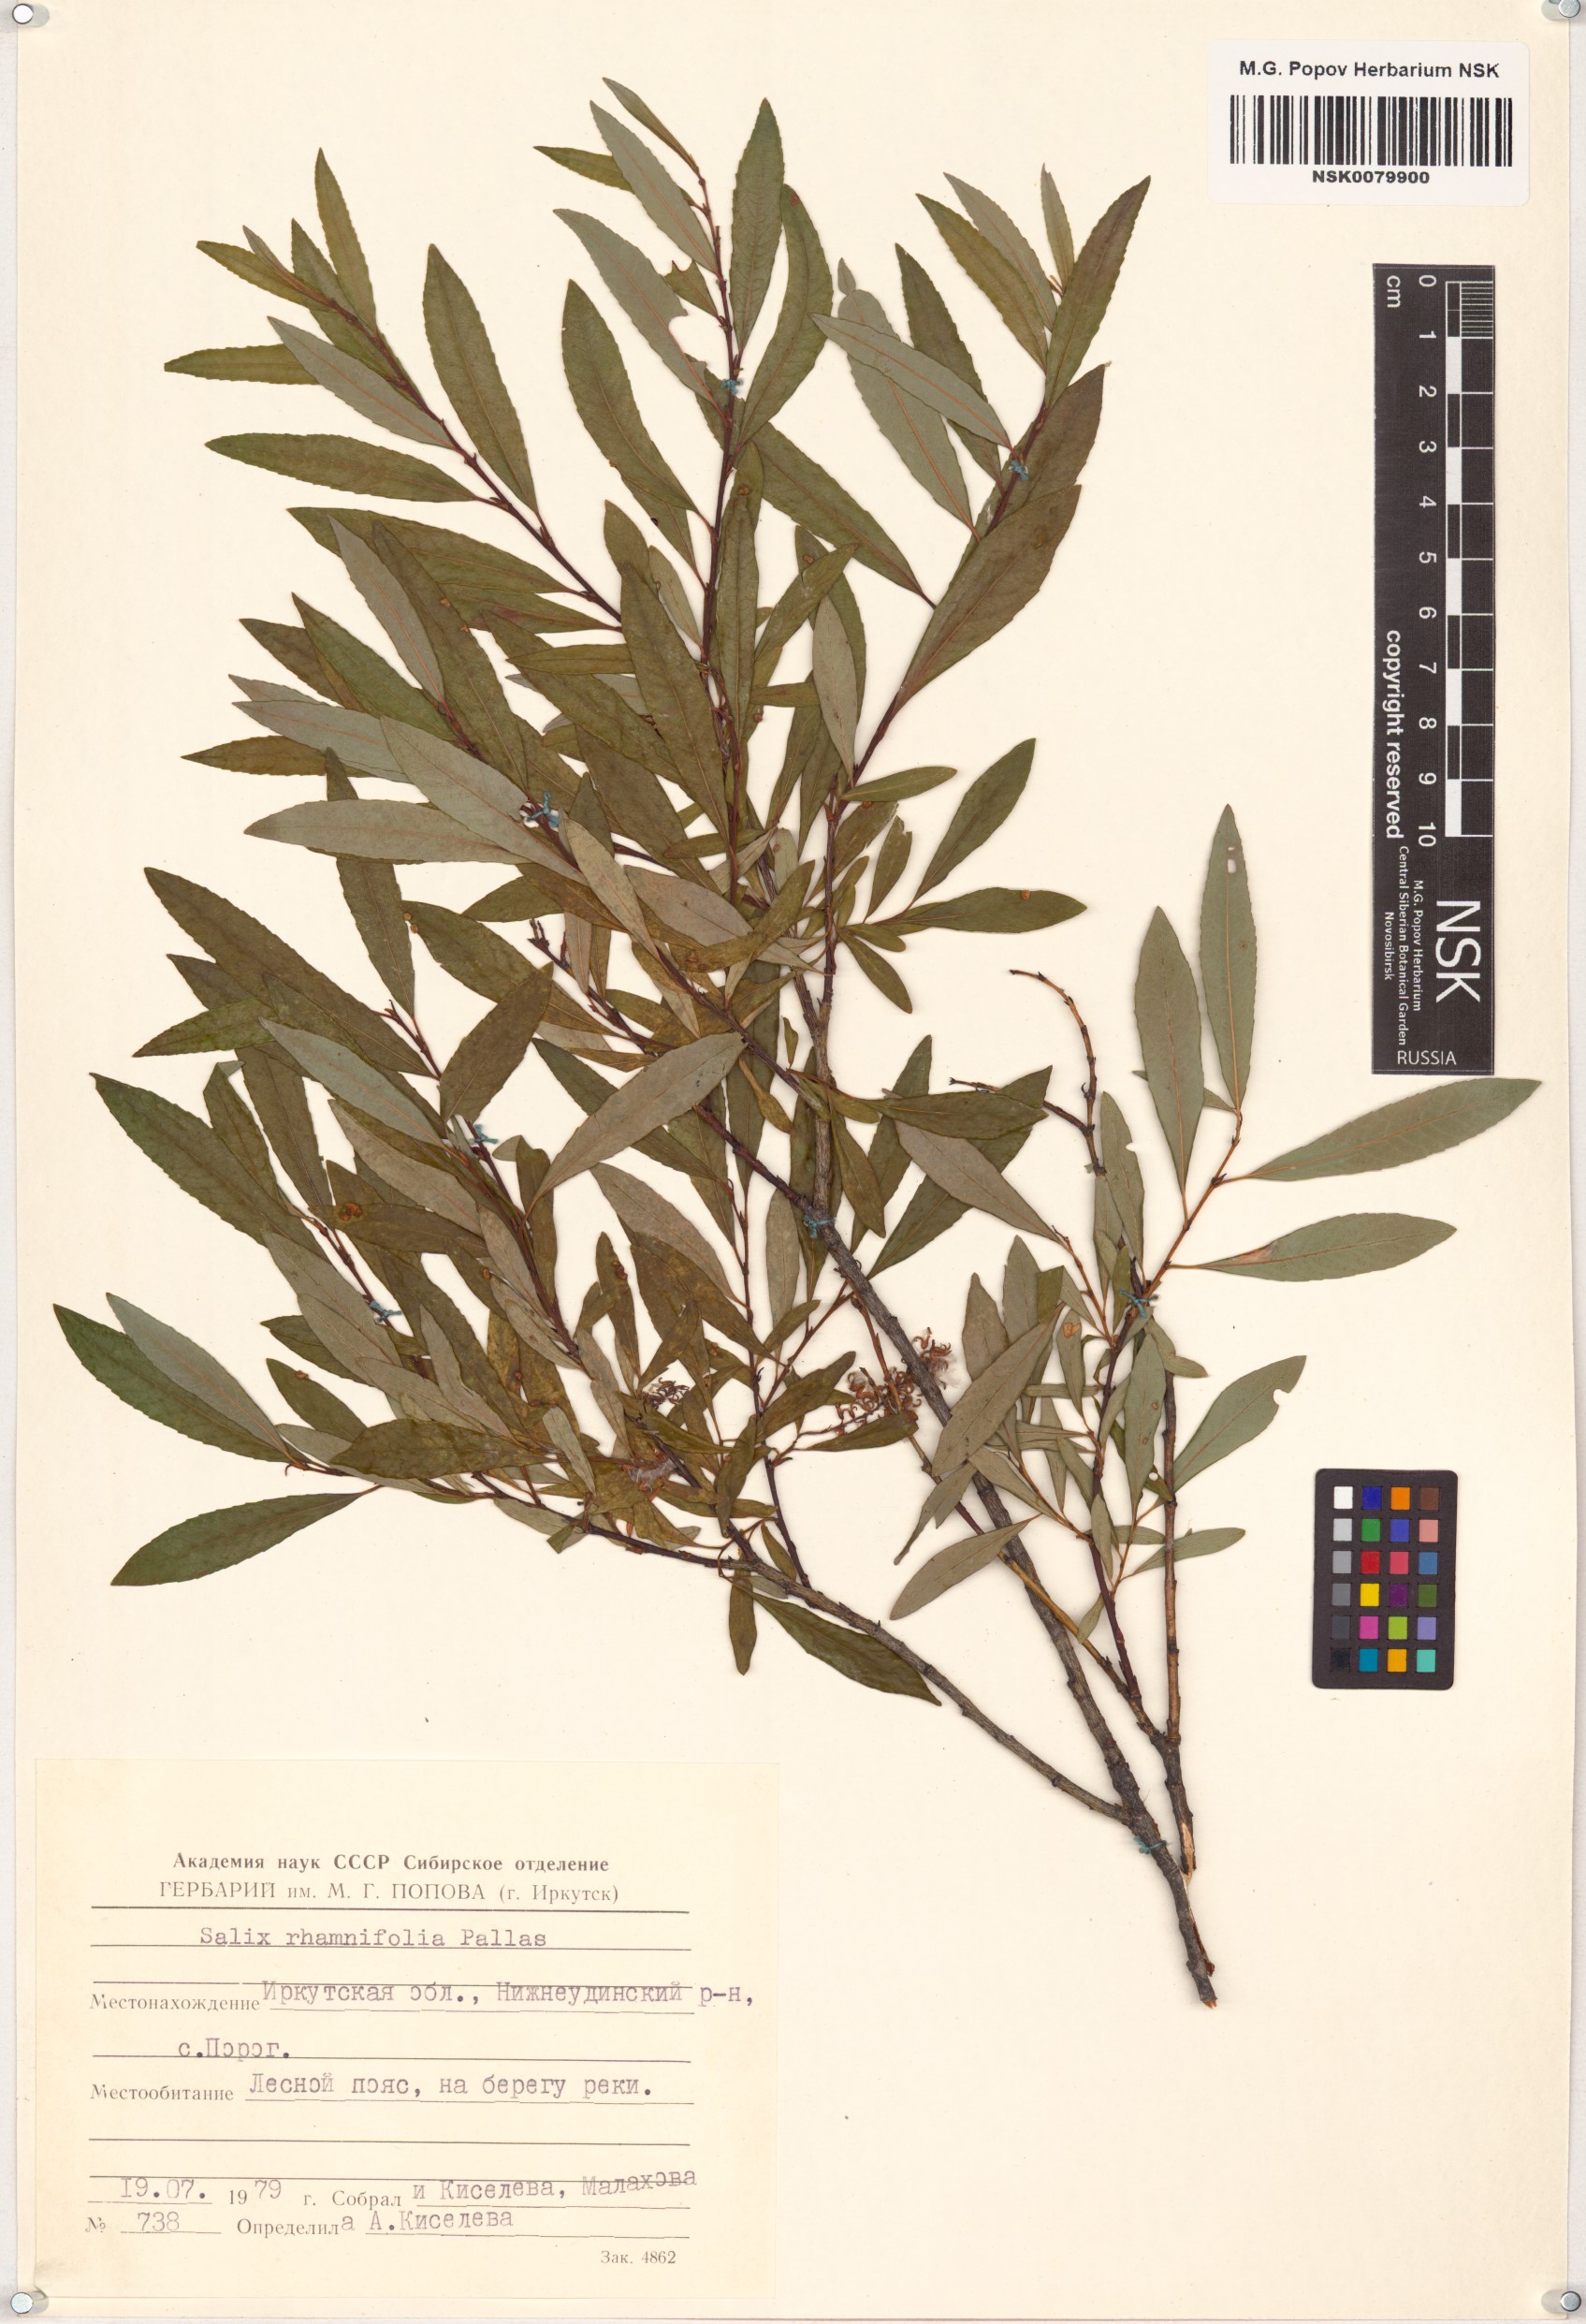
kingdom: Plantae
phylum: Tracheophyta
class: Magnoliopsida
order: Malpighiales
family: Salicaceae
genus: Salix
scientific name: Salix rhamnifolia
